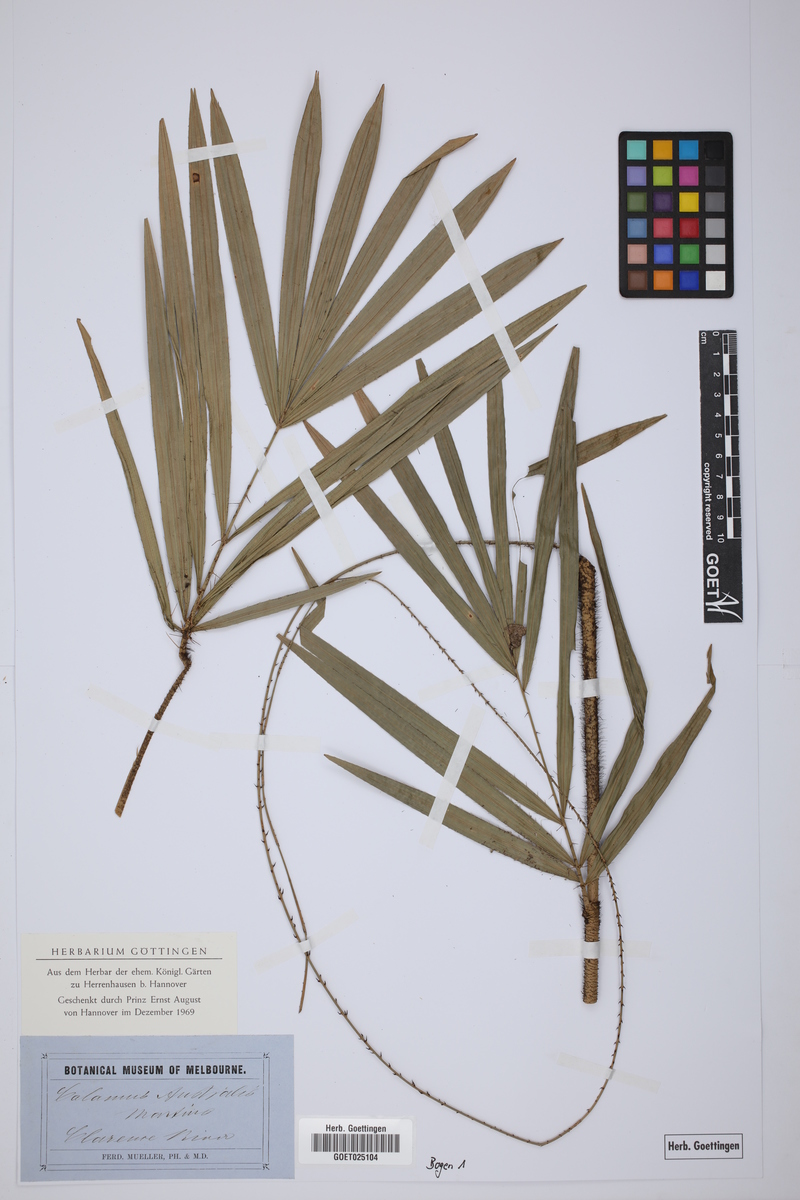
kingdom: Plantae
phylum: Tracheophyta
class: Liliopsida
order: Arecales
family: Arecaceae
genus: Calamus
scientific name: Calamus australis
